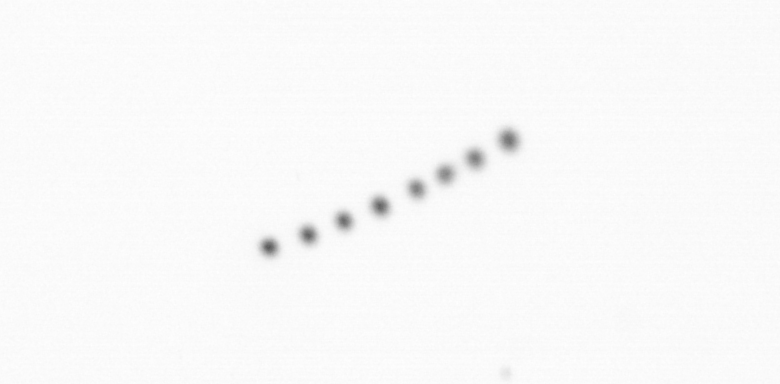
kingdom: Chromista
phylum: Ochrophyta
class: Bacillariophyceae
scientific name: Bacillariophyceae
